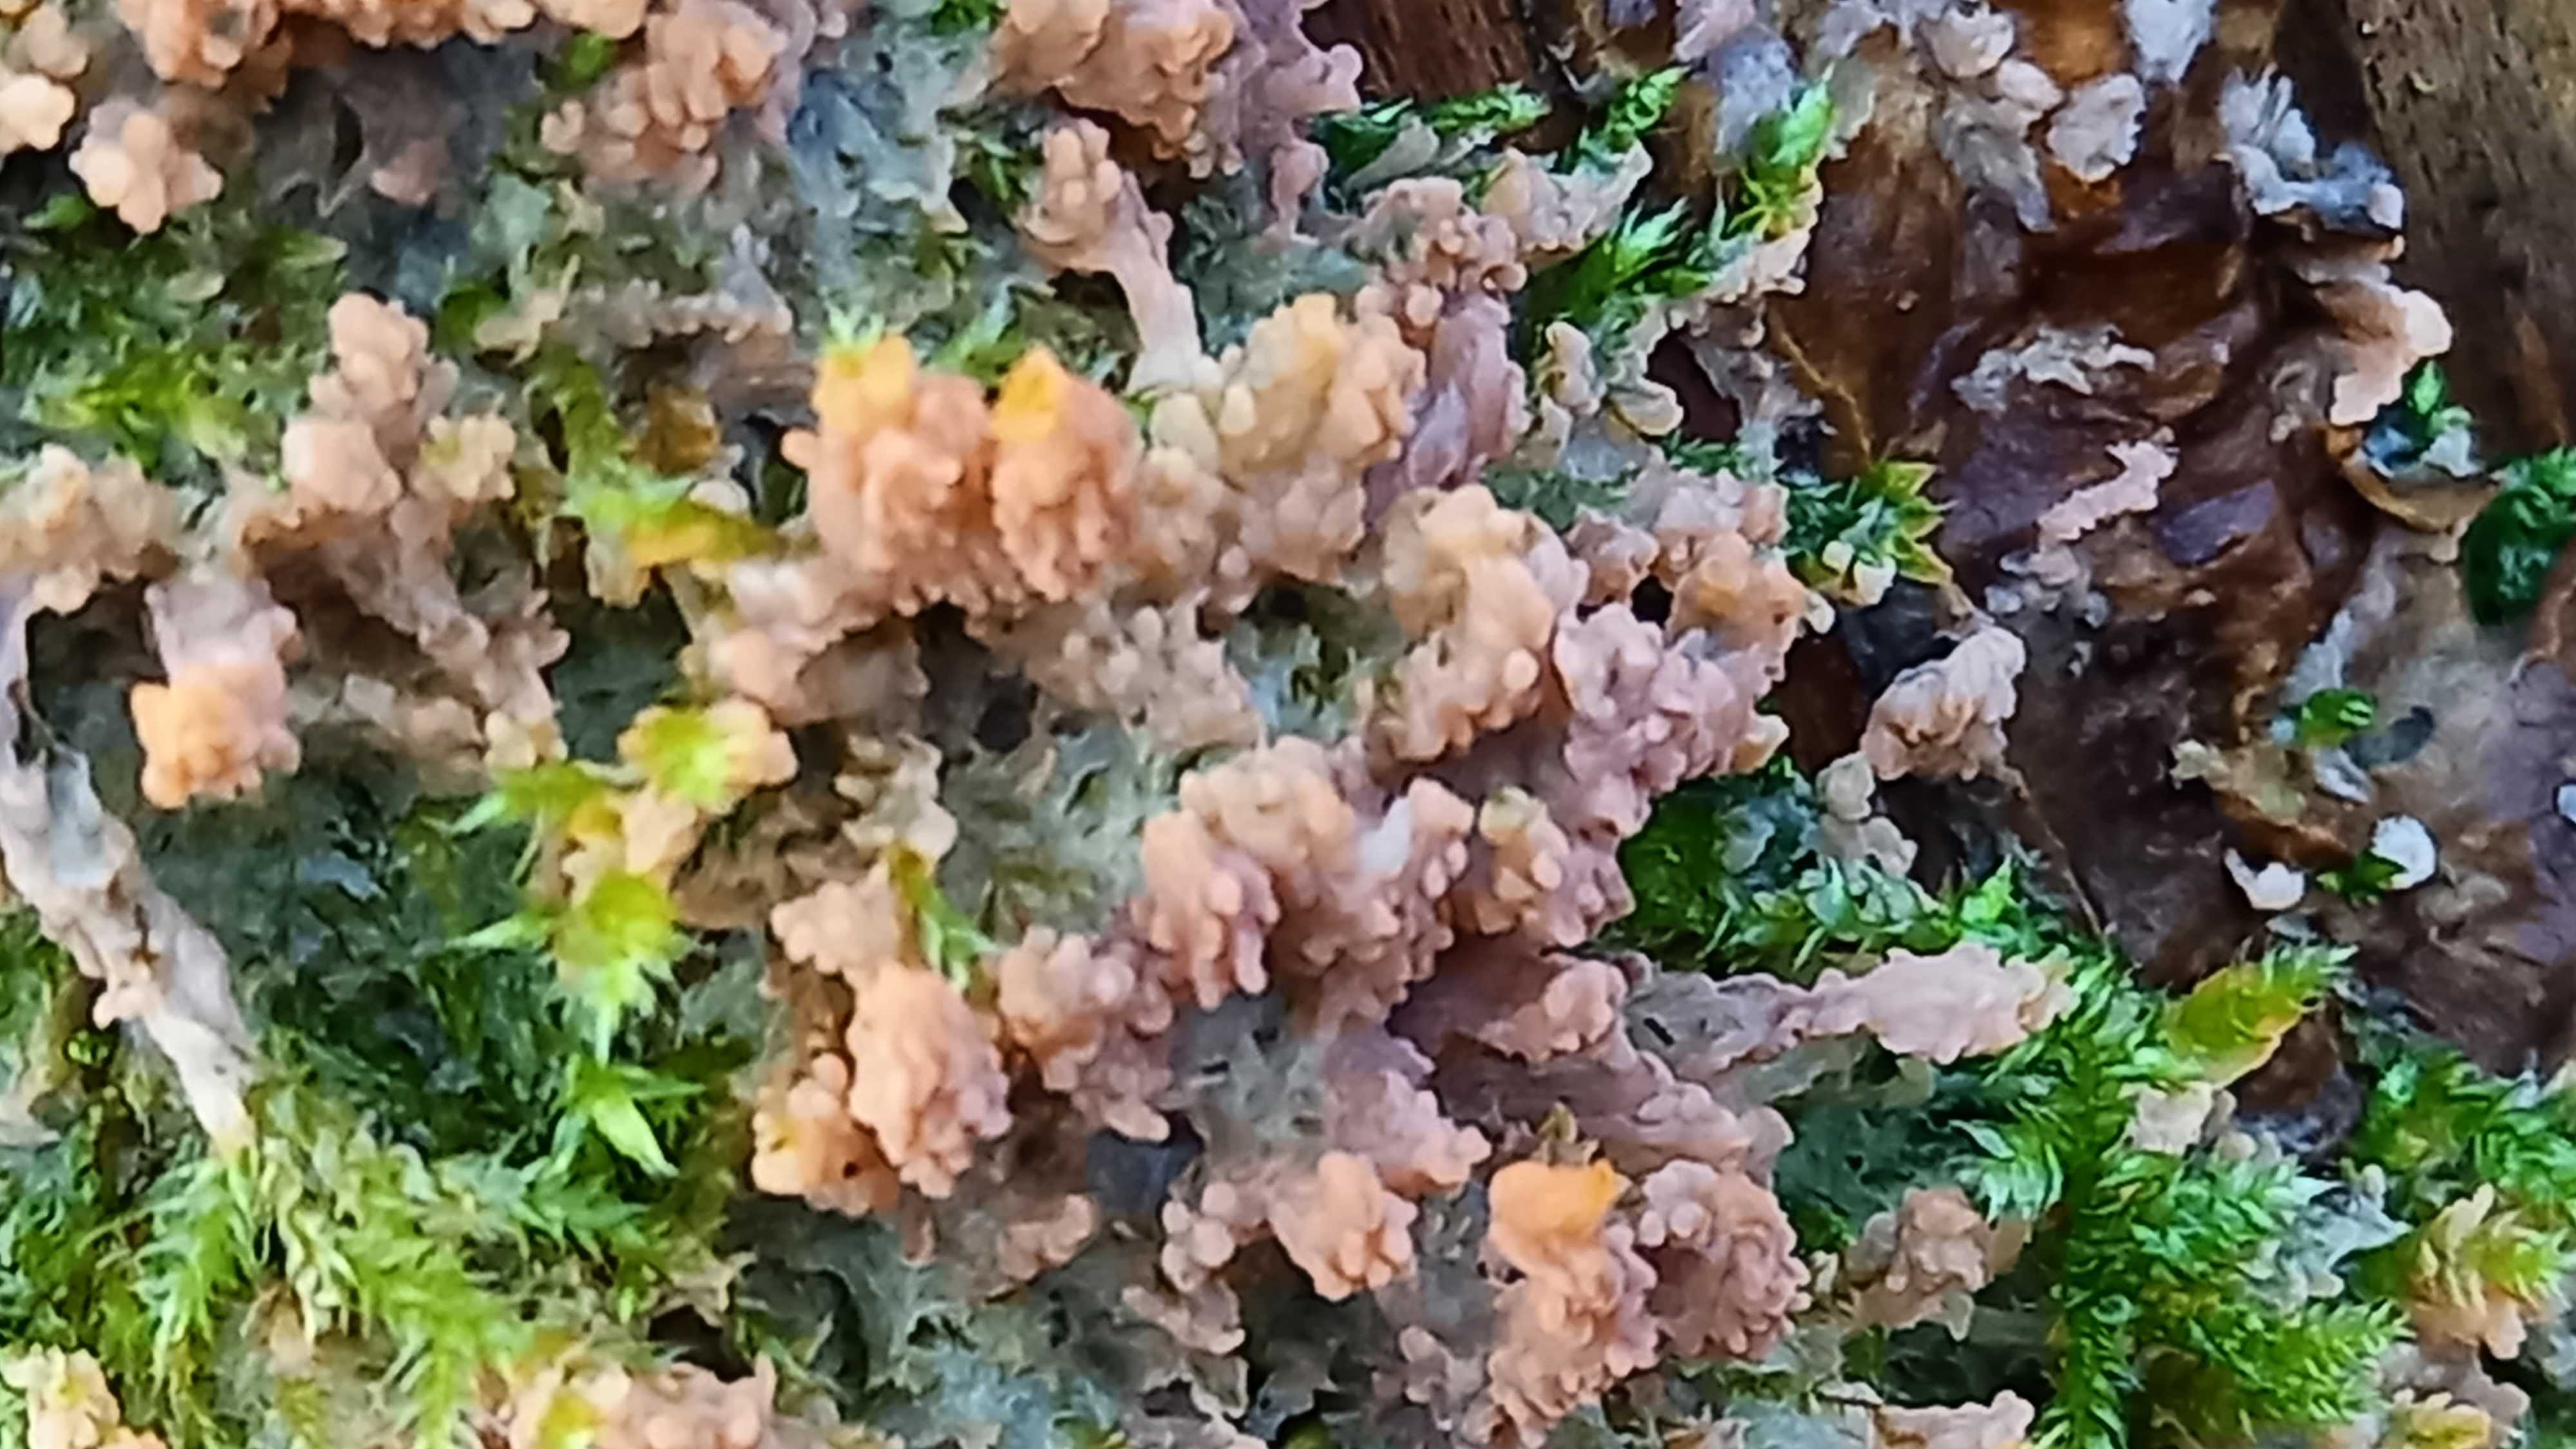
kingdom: Fungi
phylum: Basidiomycota
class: Agaricomycetes
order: Polyporales
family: Meruliaceae
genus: Phlebia
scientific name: Phlebia radiata
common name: stråle-åresvamp
